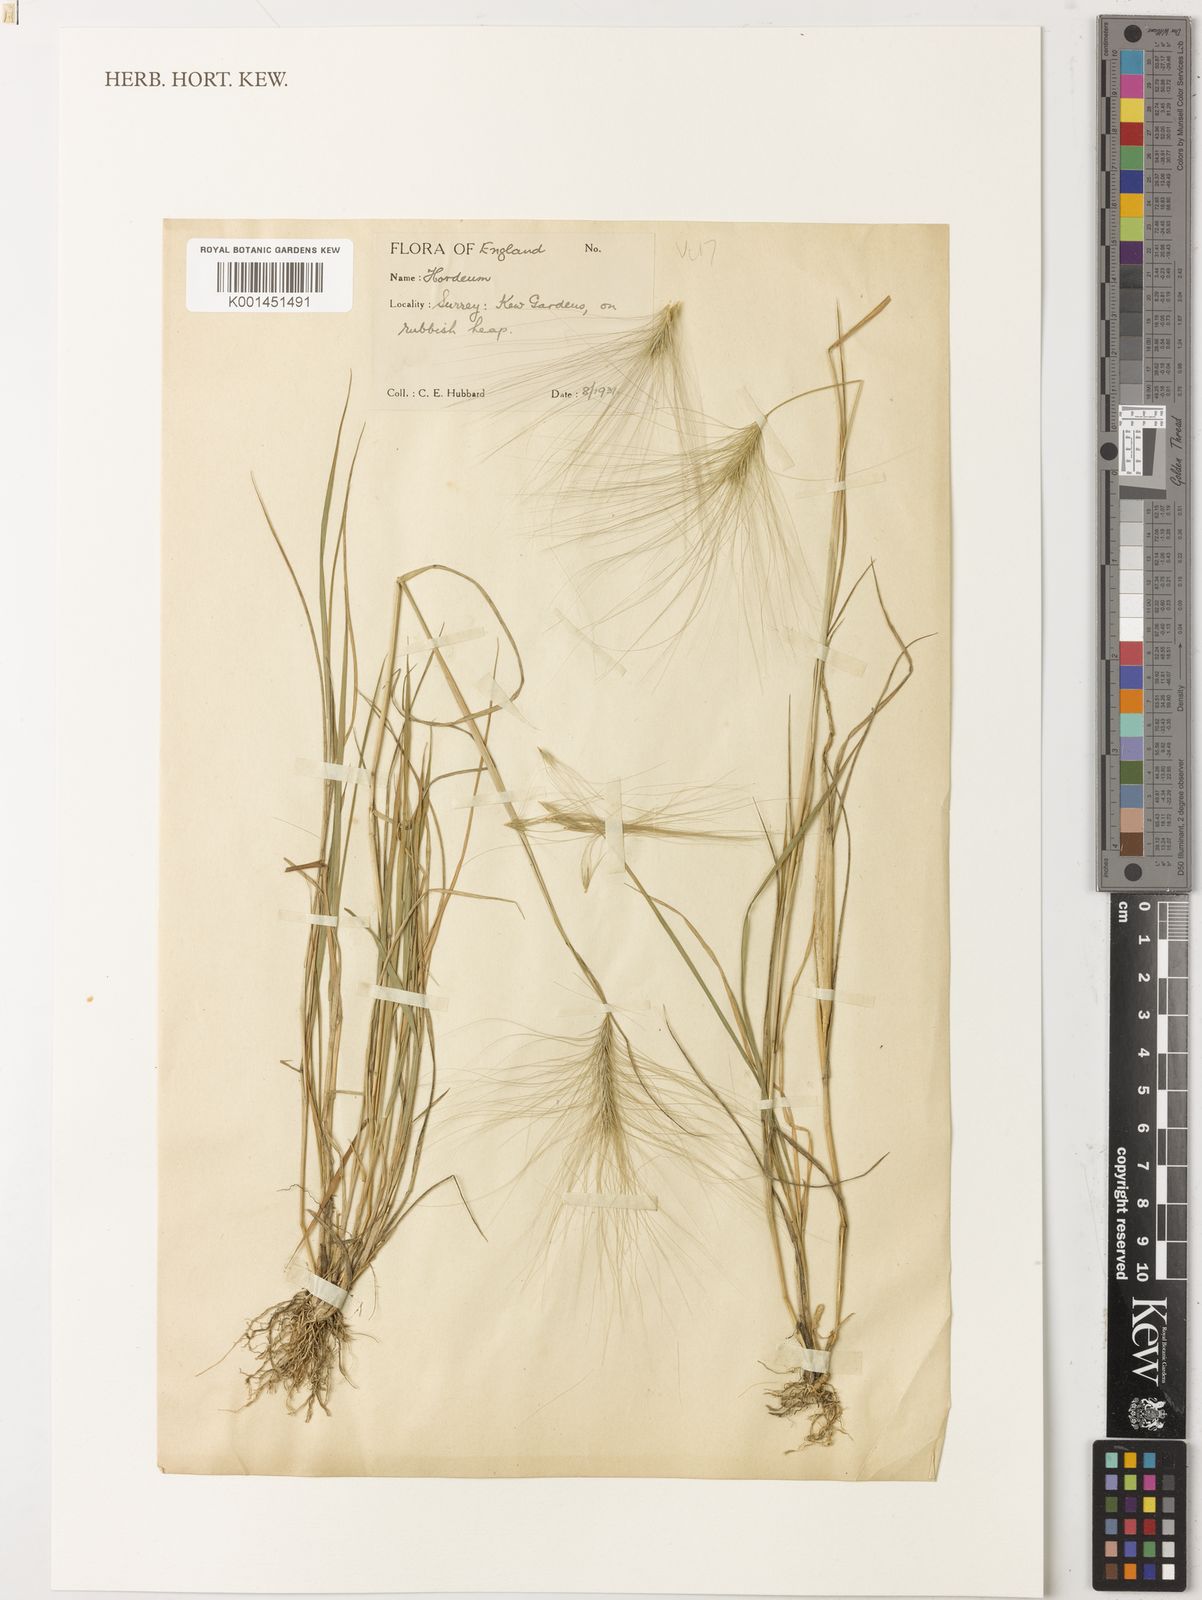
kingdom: Plantae
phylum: Tracheophyta
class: Liliopsida
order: Poales
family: Poaceae
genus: Hordeum
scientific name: Hordeum jubatum
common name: Foxtail barley
